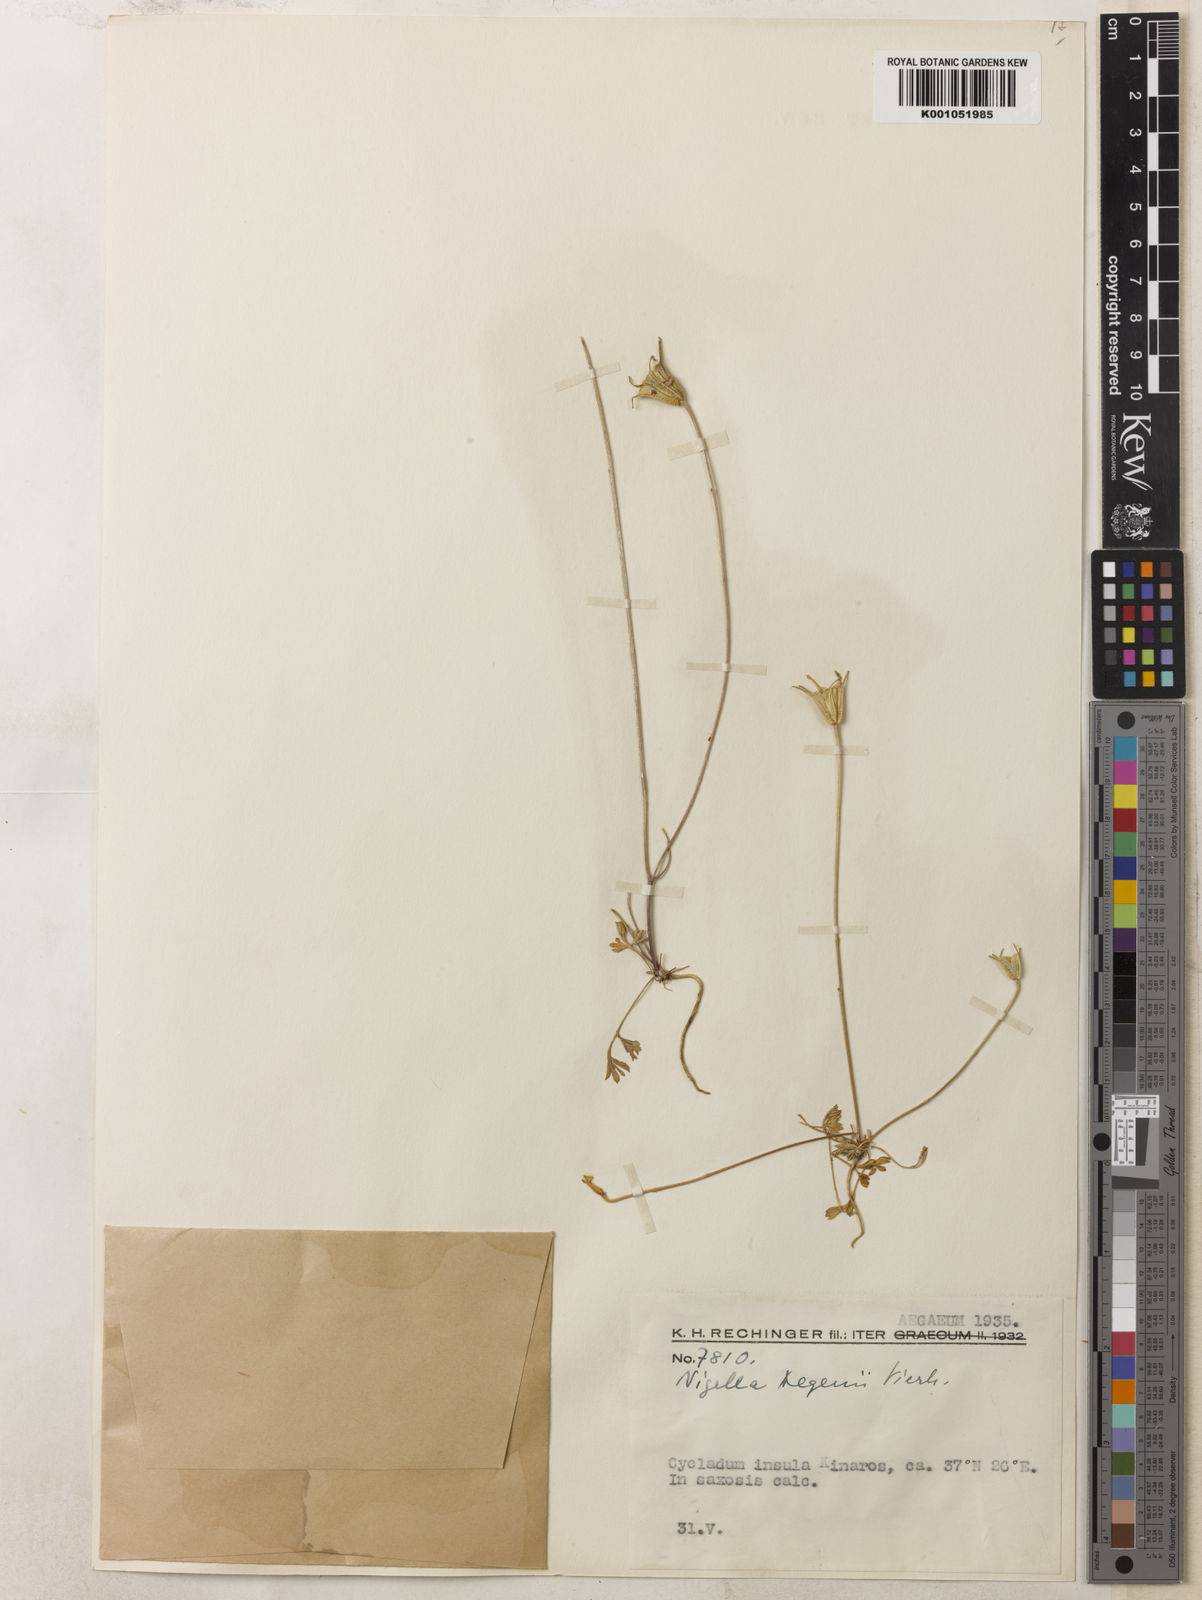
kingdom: Plantae
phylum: Tracheophyta
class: Magnoliopsida
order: Ranunculales
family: Ranunculaceae
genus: Nigella
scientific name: Nigella arvensis
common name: Wild fennel-flower
